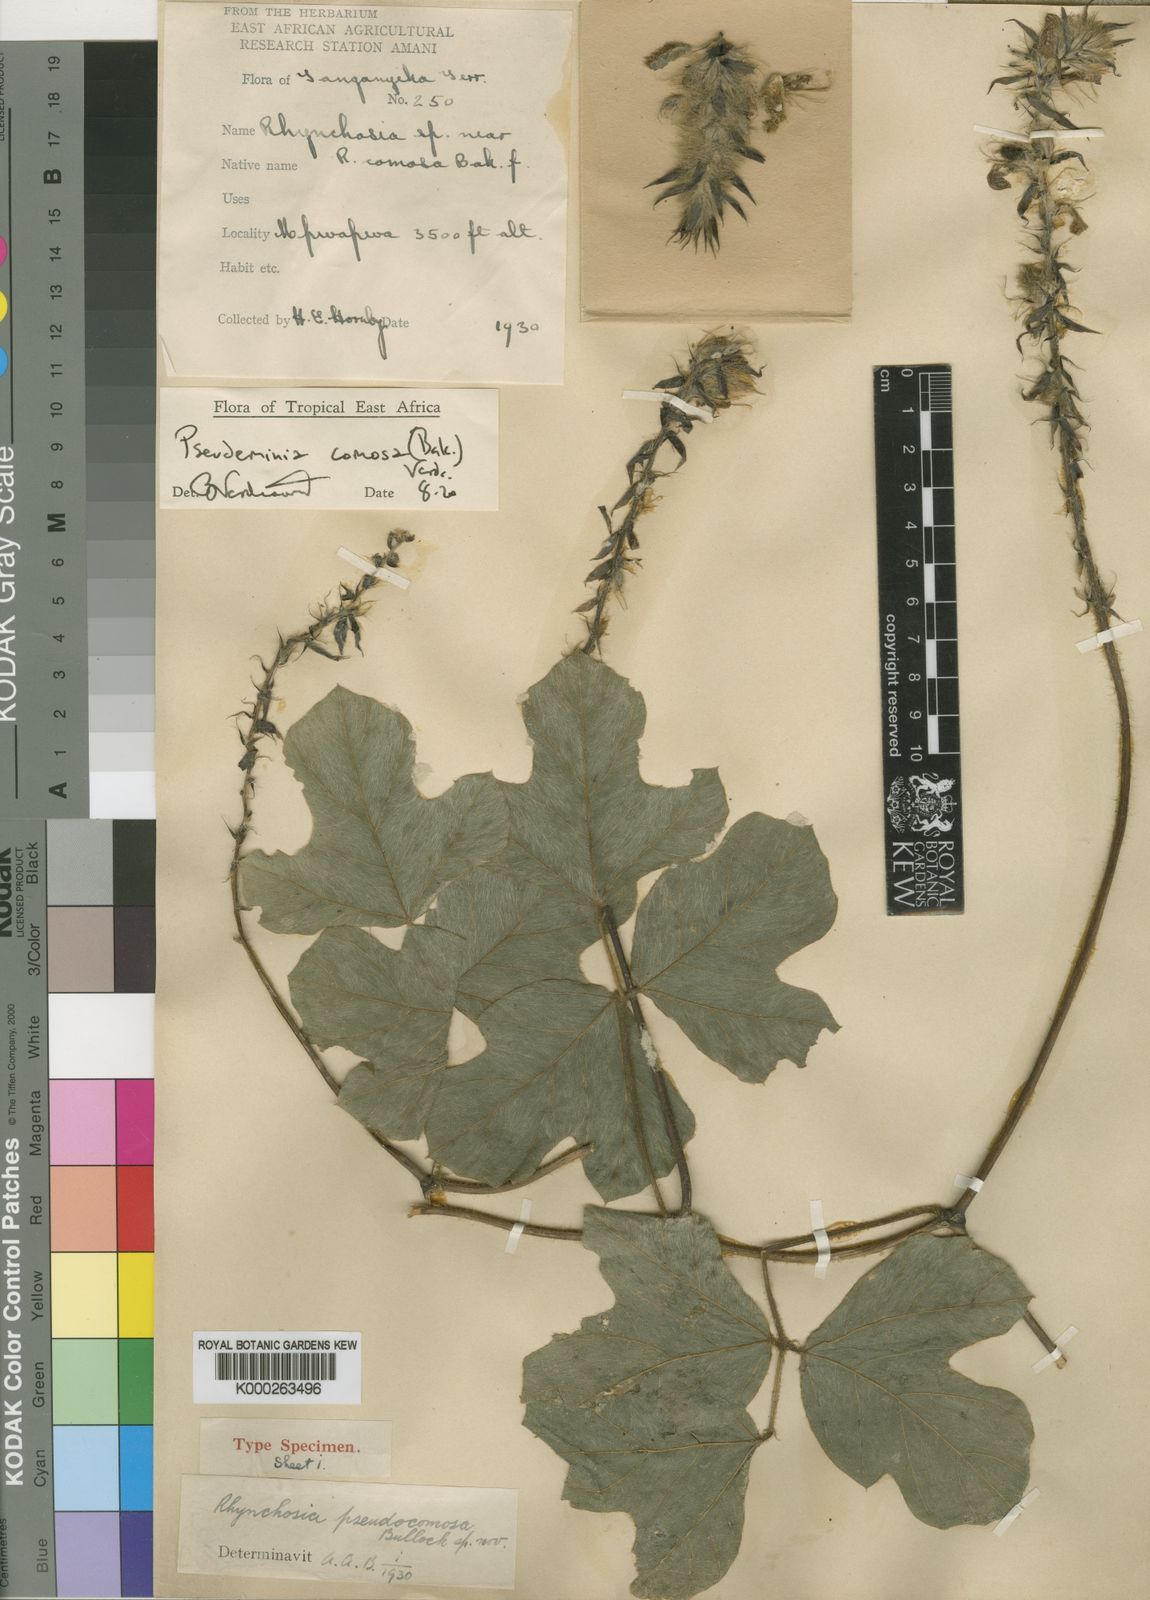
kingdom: Plantae
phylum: Tracheophyta
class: Magnoliopsida
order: Fabales
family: Fabaceae
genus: Pseudeminia
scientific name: Pseudeminia comosa
